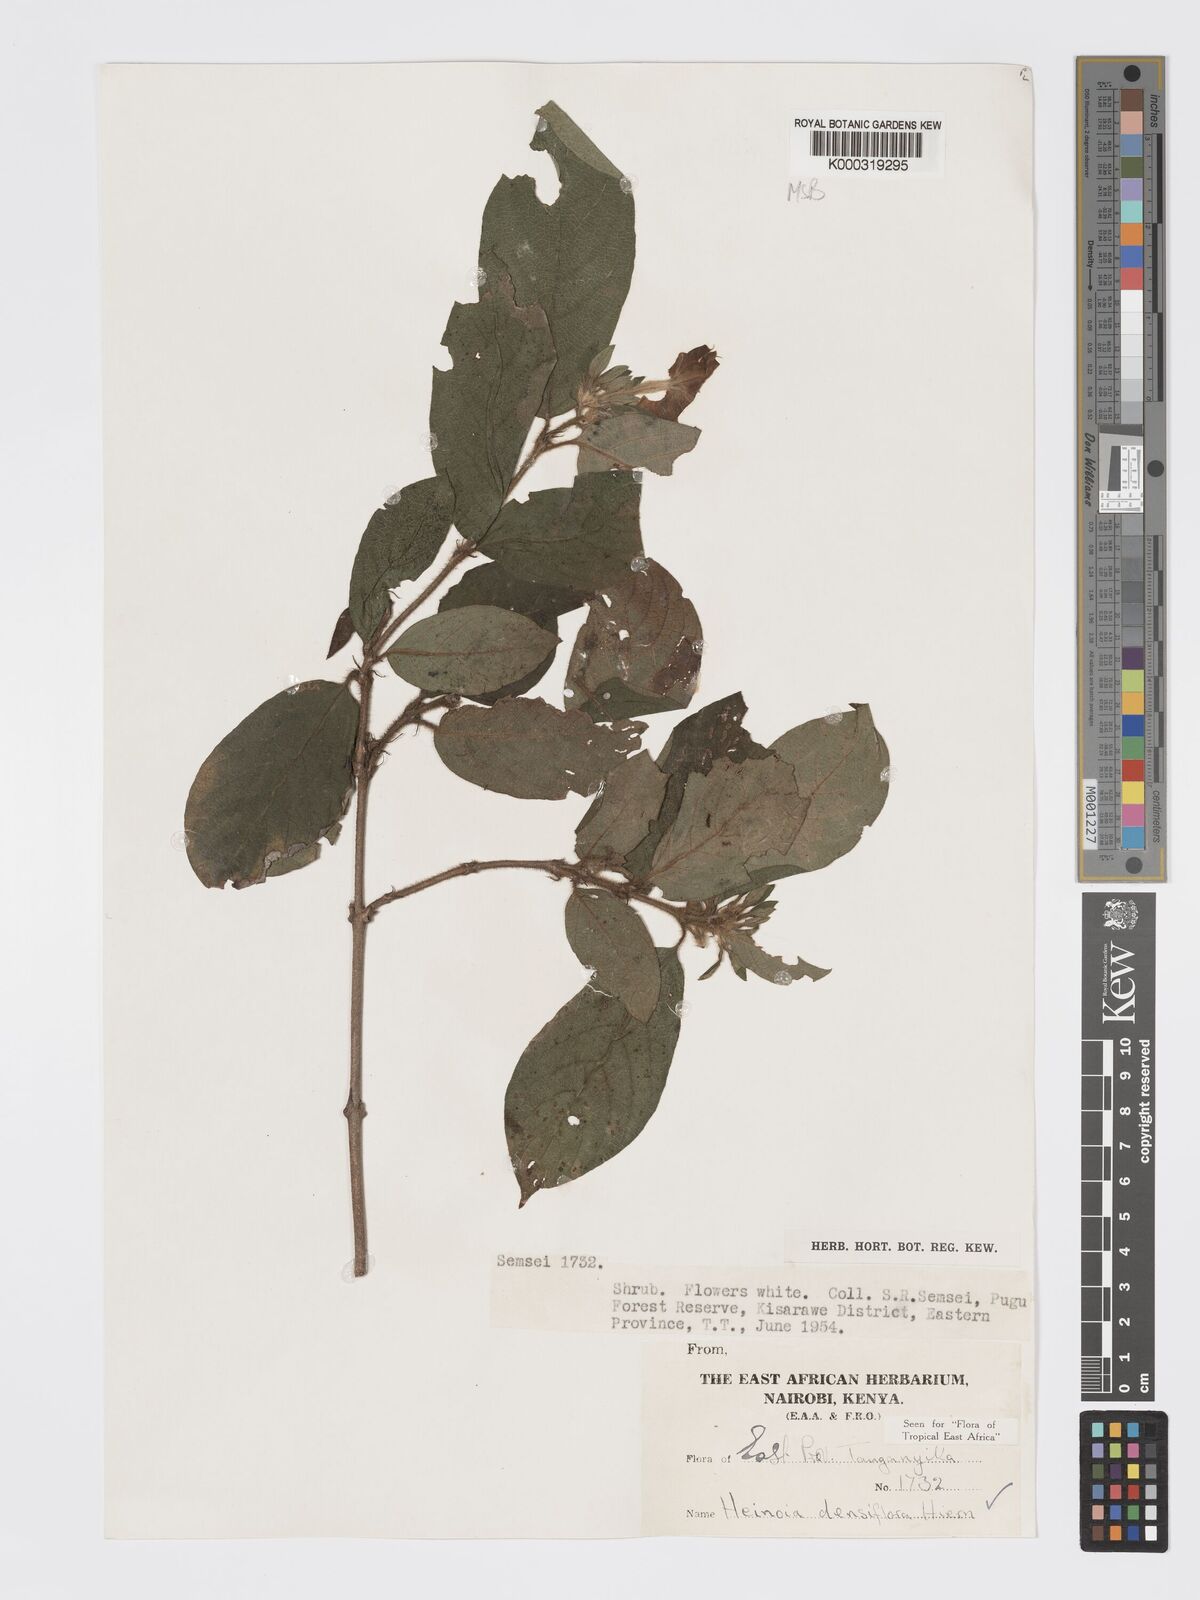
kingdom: Plantae
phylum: Tracheophyta
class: Magnoliopsida
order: Gentianales
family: Rubiaceae
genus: Heinsia
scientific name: Heinsia zanzibarica
